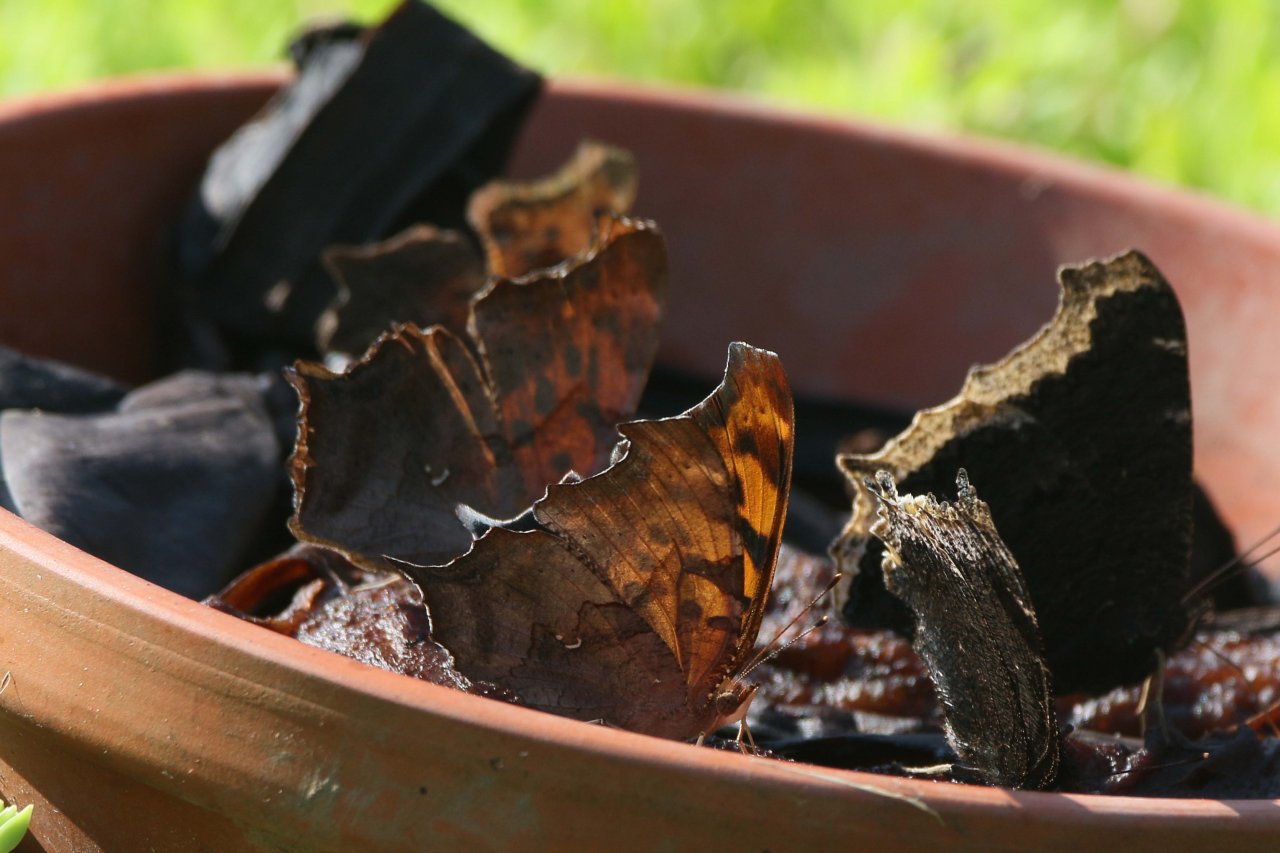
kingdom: Animalia
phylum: Arthropoda
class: Insecta
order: Lepidoptera
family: Nymphalidae
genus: Polygonia
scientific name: Polygonia interrogationis
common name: Question Mark
